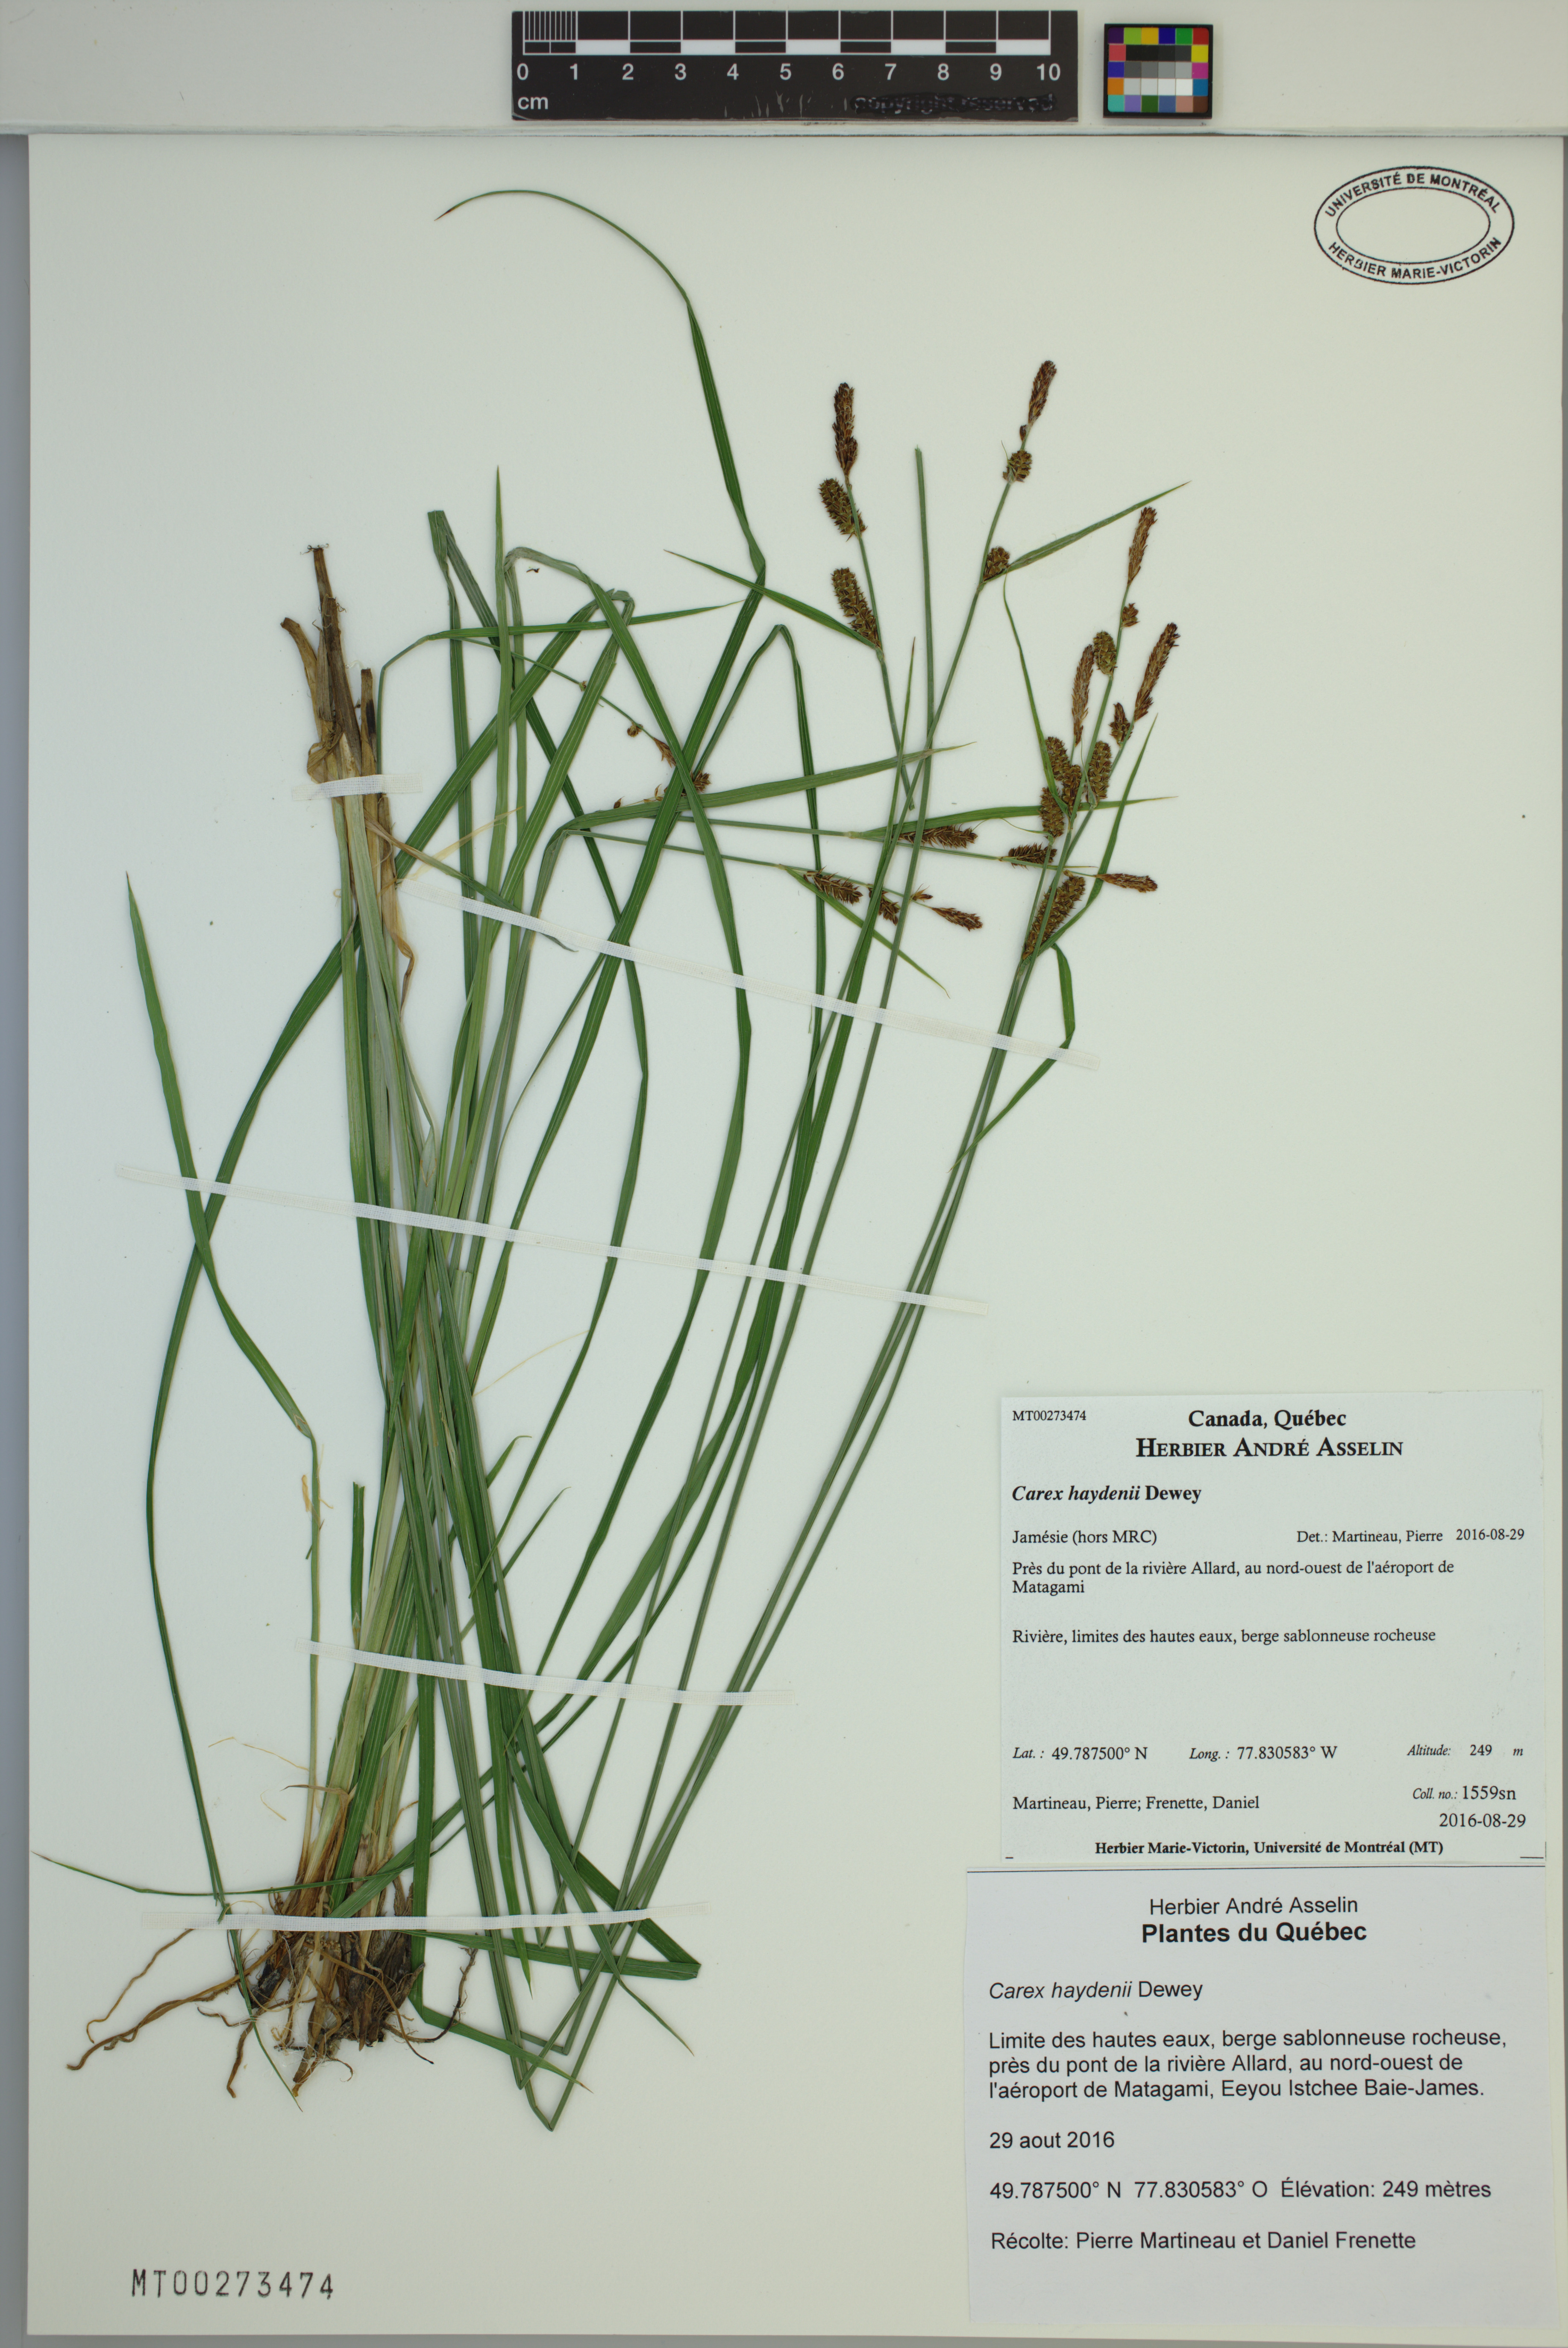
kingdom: Plantae
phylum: Tracheophyta
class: Liliopsida
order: Poales
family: Cyperaceae
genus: Carex
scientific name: Carex haydenii
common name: Hayden's sedge
